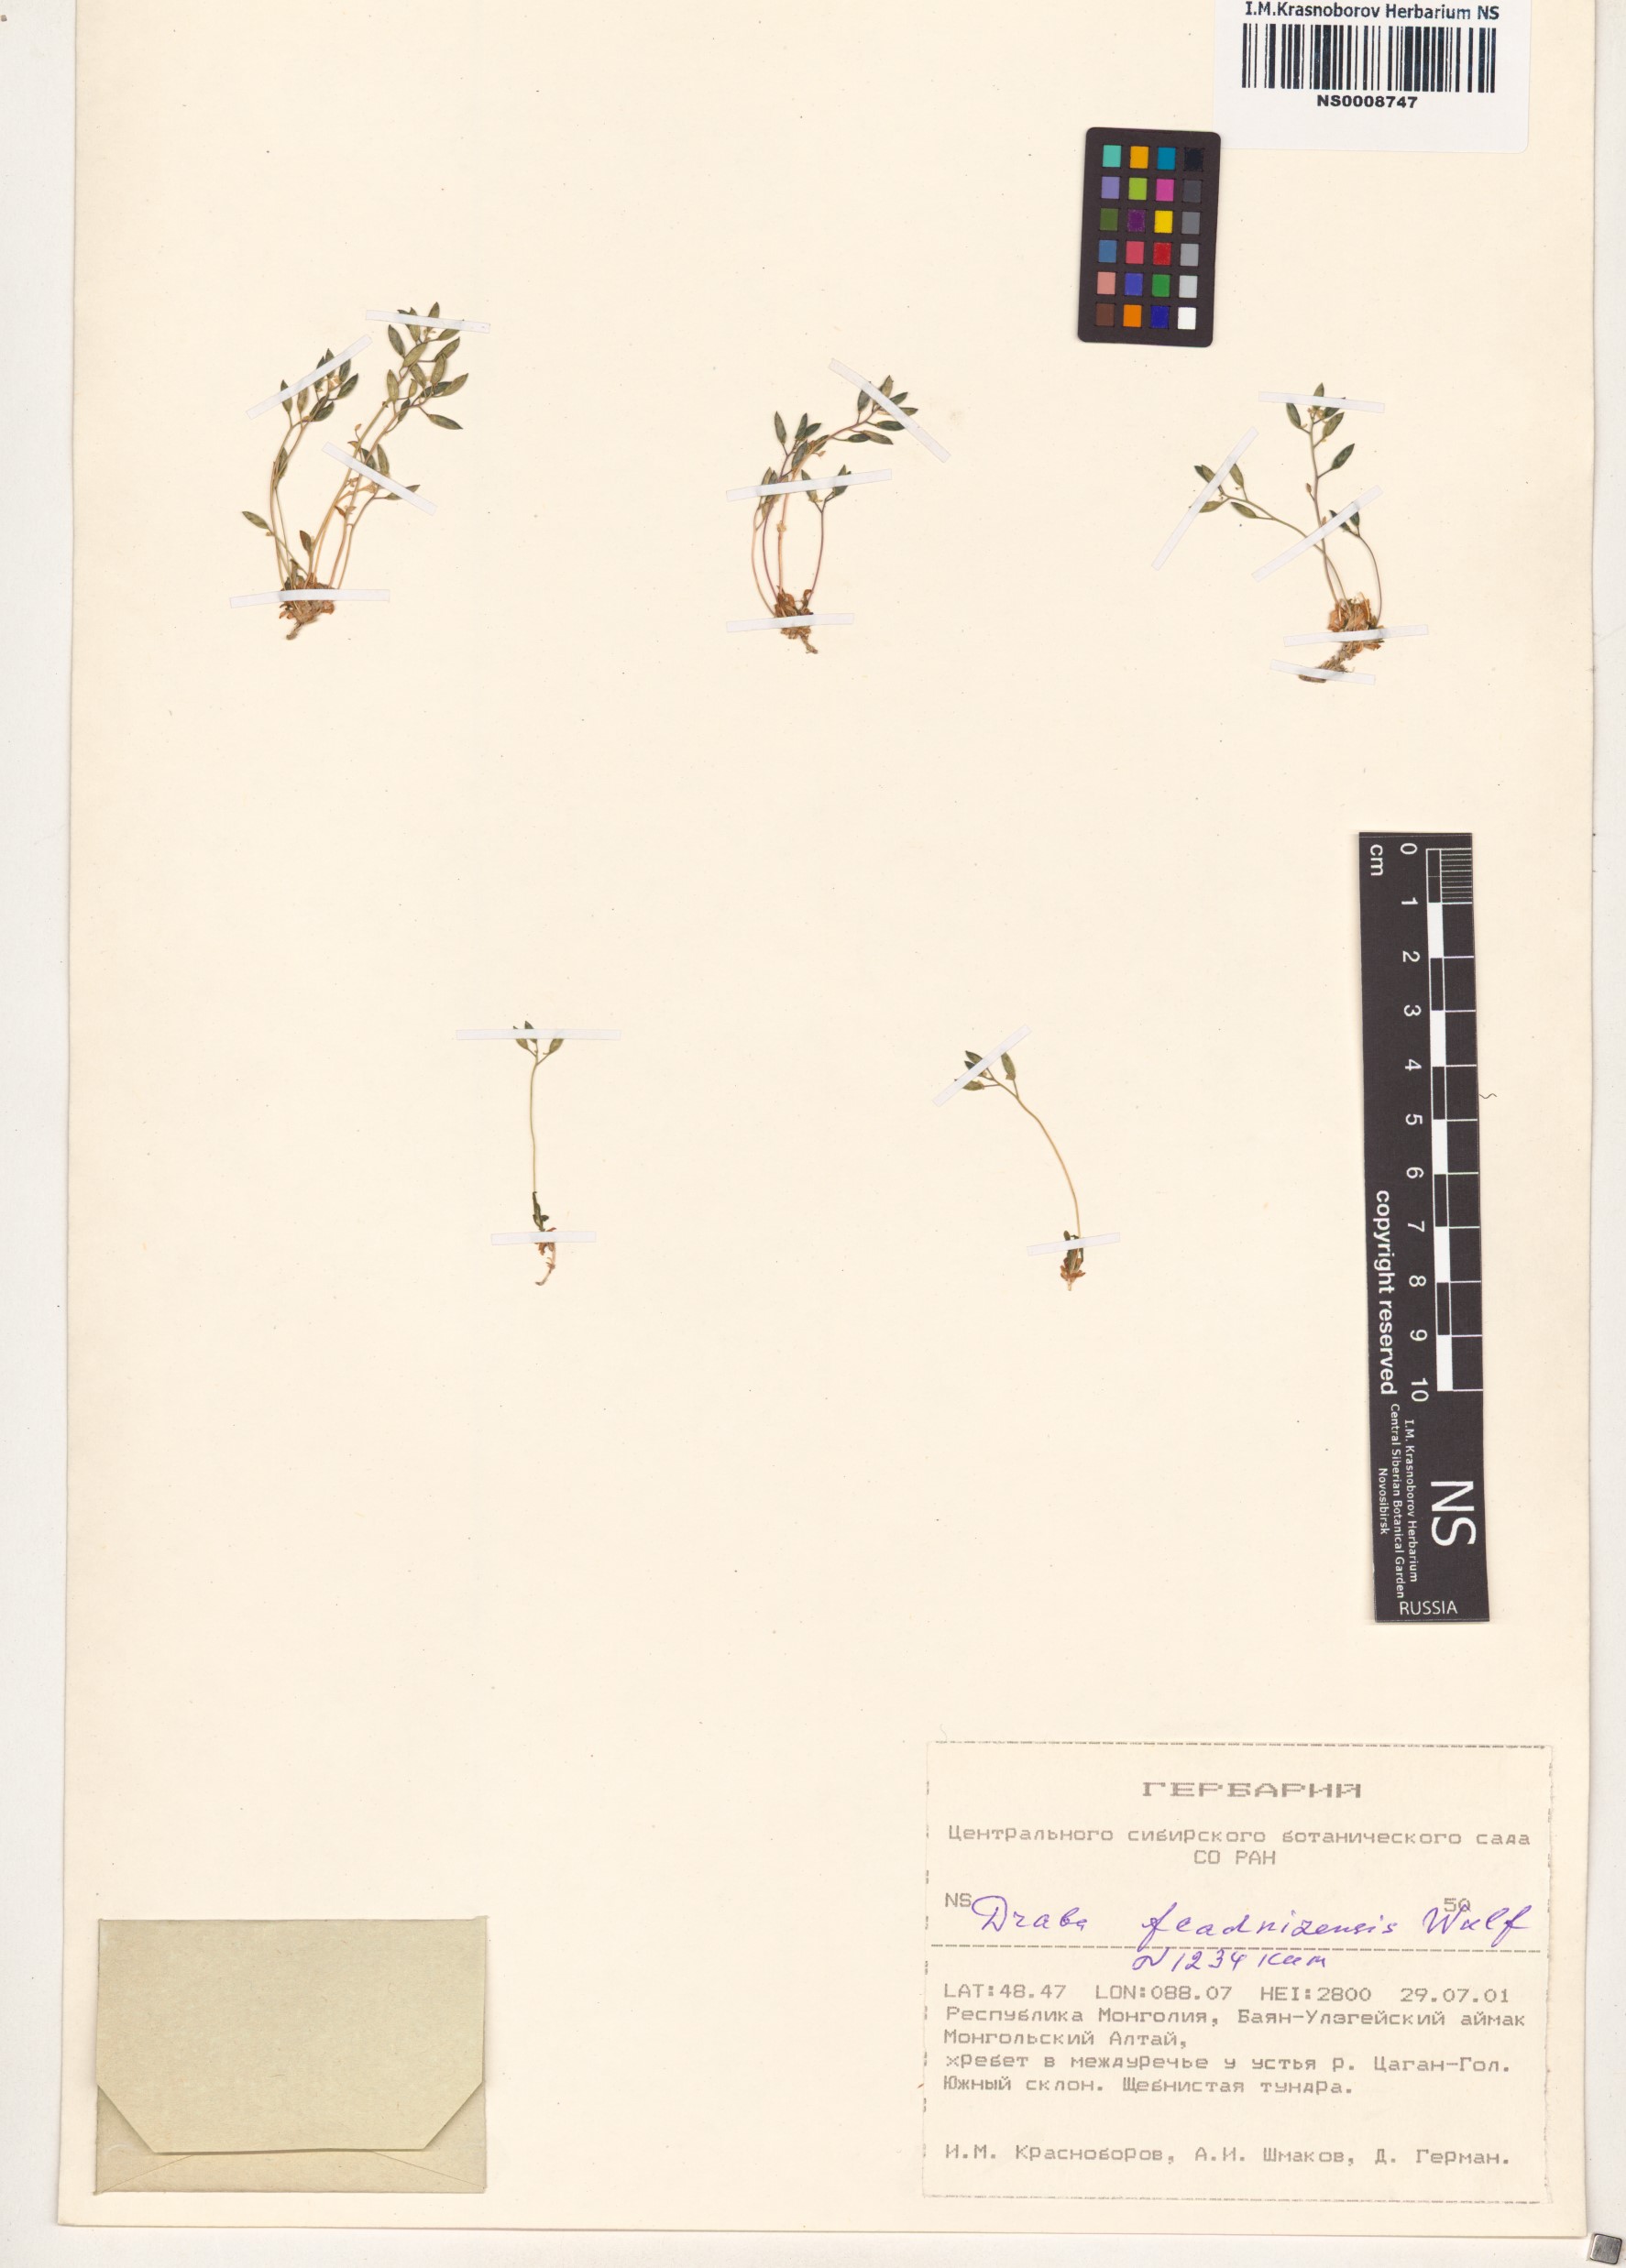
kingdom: Plantae
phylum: Tracheophyta
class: Magnoliopsida
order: Brassicales
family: Brassicaceae
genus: Draba
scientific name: Draba fladnizensis
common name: Austrian draba
